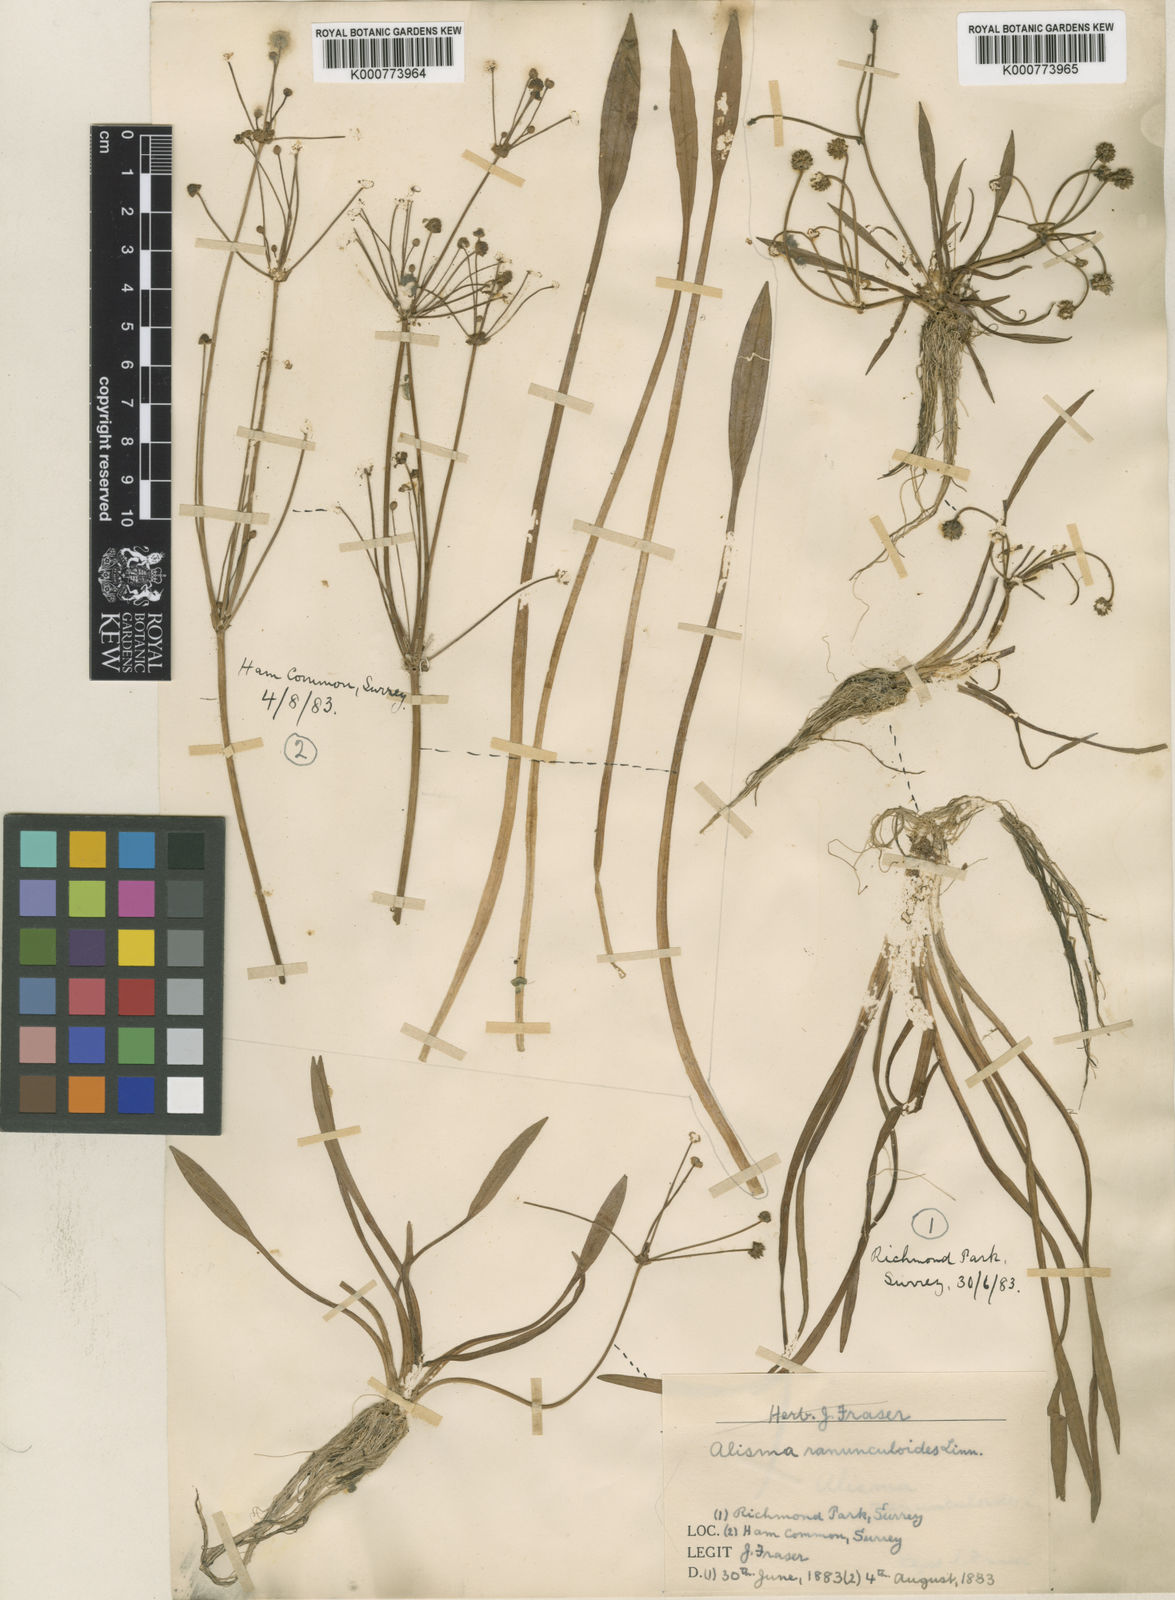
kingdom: Plantae
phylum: Tracheophyta
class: Liliopsida
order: Alismatales
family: Alismataceae
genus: Baldellia
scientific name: Baldellia ranunculoides
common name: Lesser water-plantain
